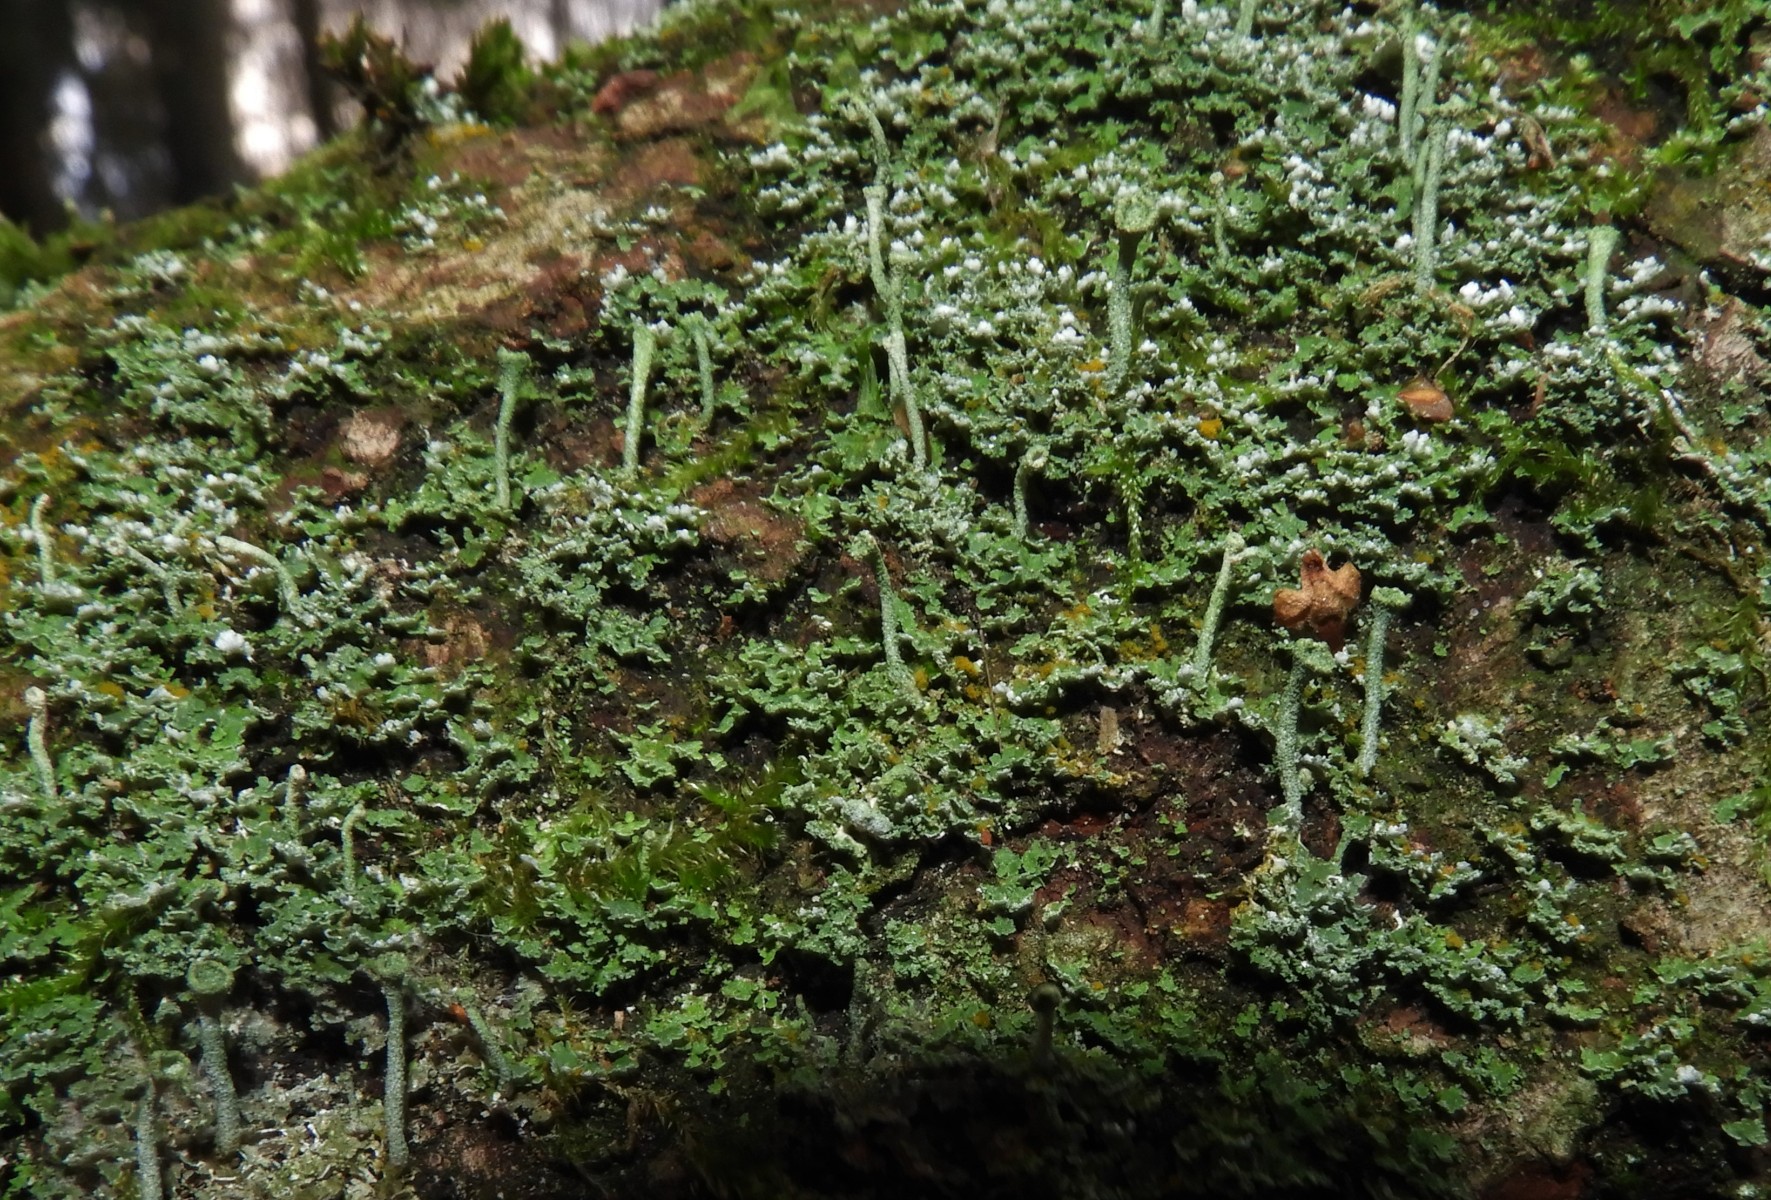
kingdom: Fungi
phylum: Ascomycota
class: Lecanoromycetes
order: Lecanorales
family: Cladoniaceae
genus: Cladonia
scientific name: Cladonia ochrochlora
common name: stød-bægerlav
